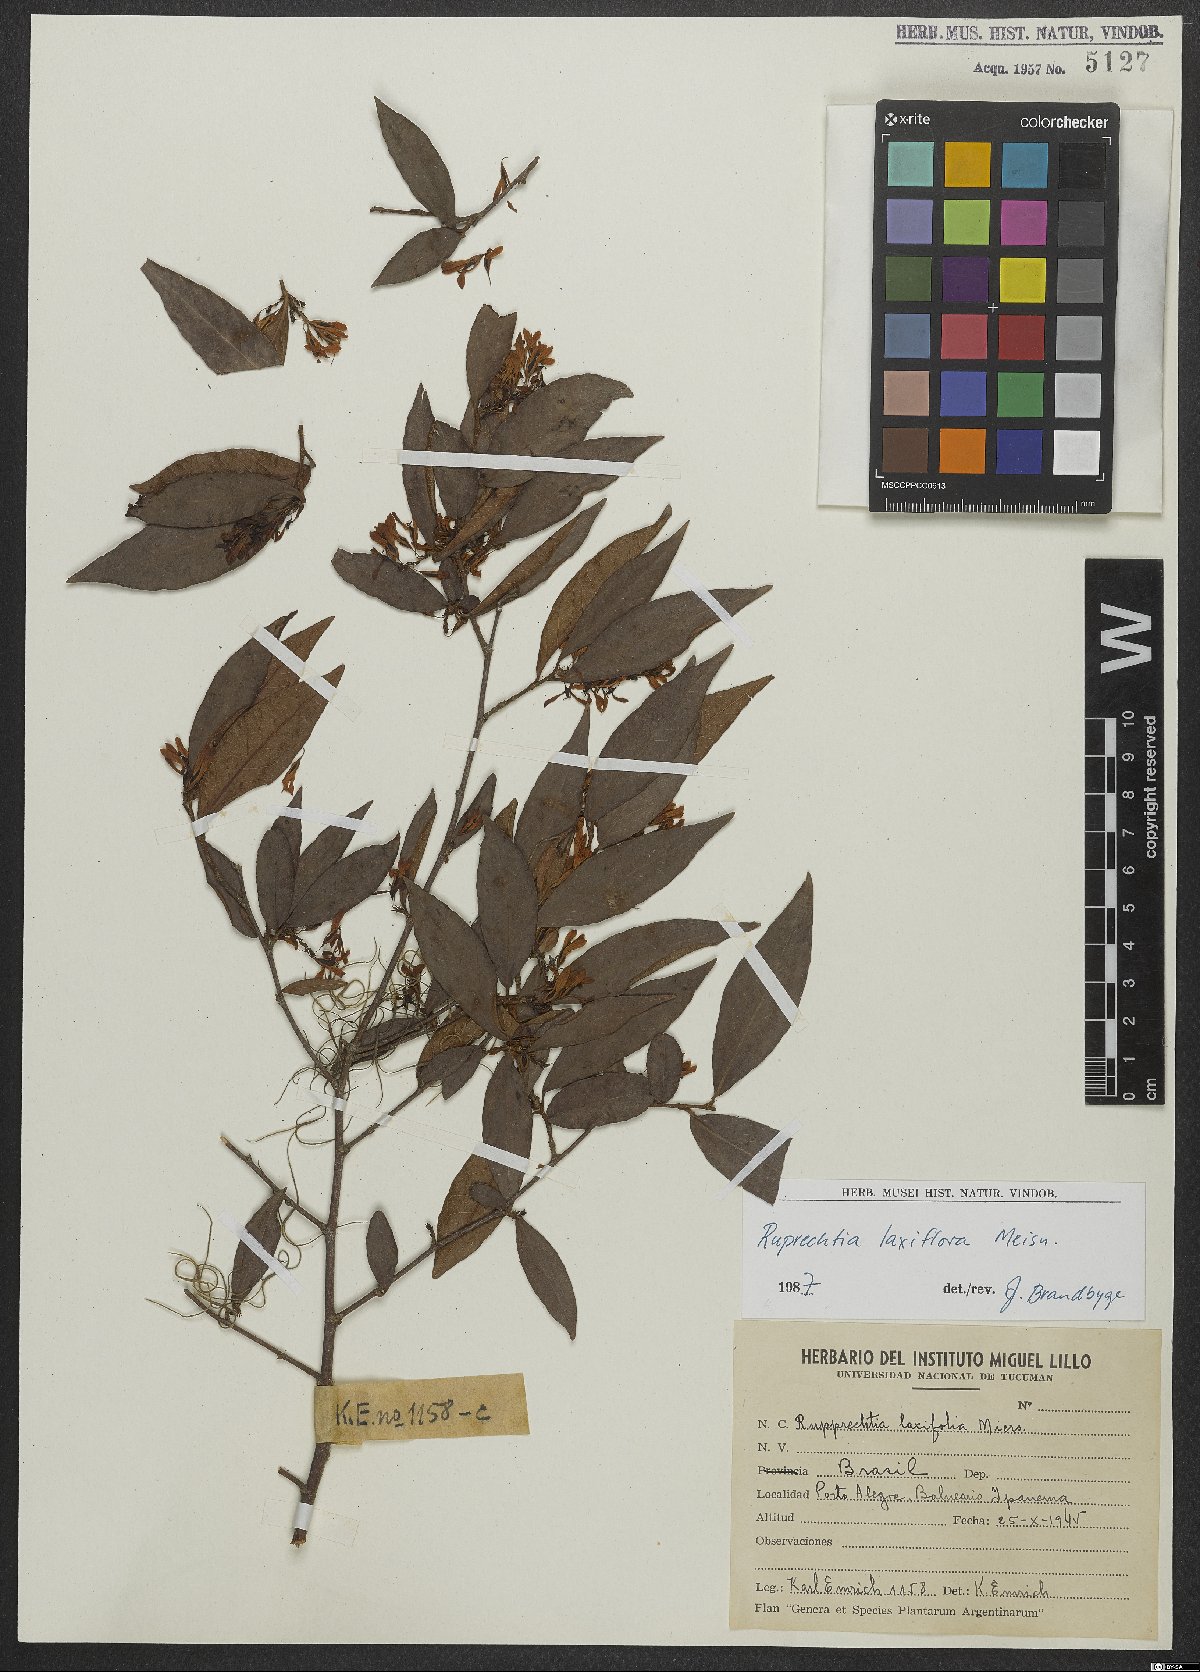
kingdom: Plantae
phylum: Tracheophyta
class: Magnoliopsida
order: Caryophyllales
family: Polygonaceae
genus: Ruprechtia
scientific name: Ruprechtia laxiflora
